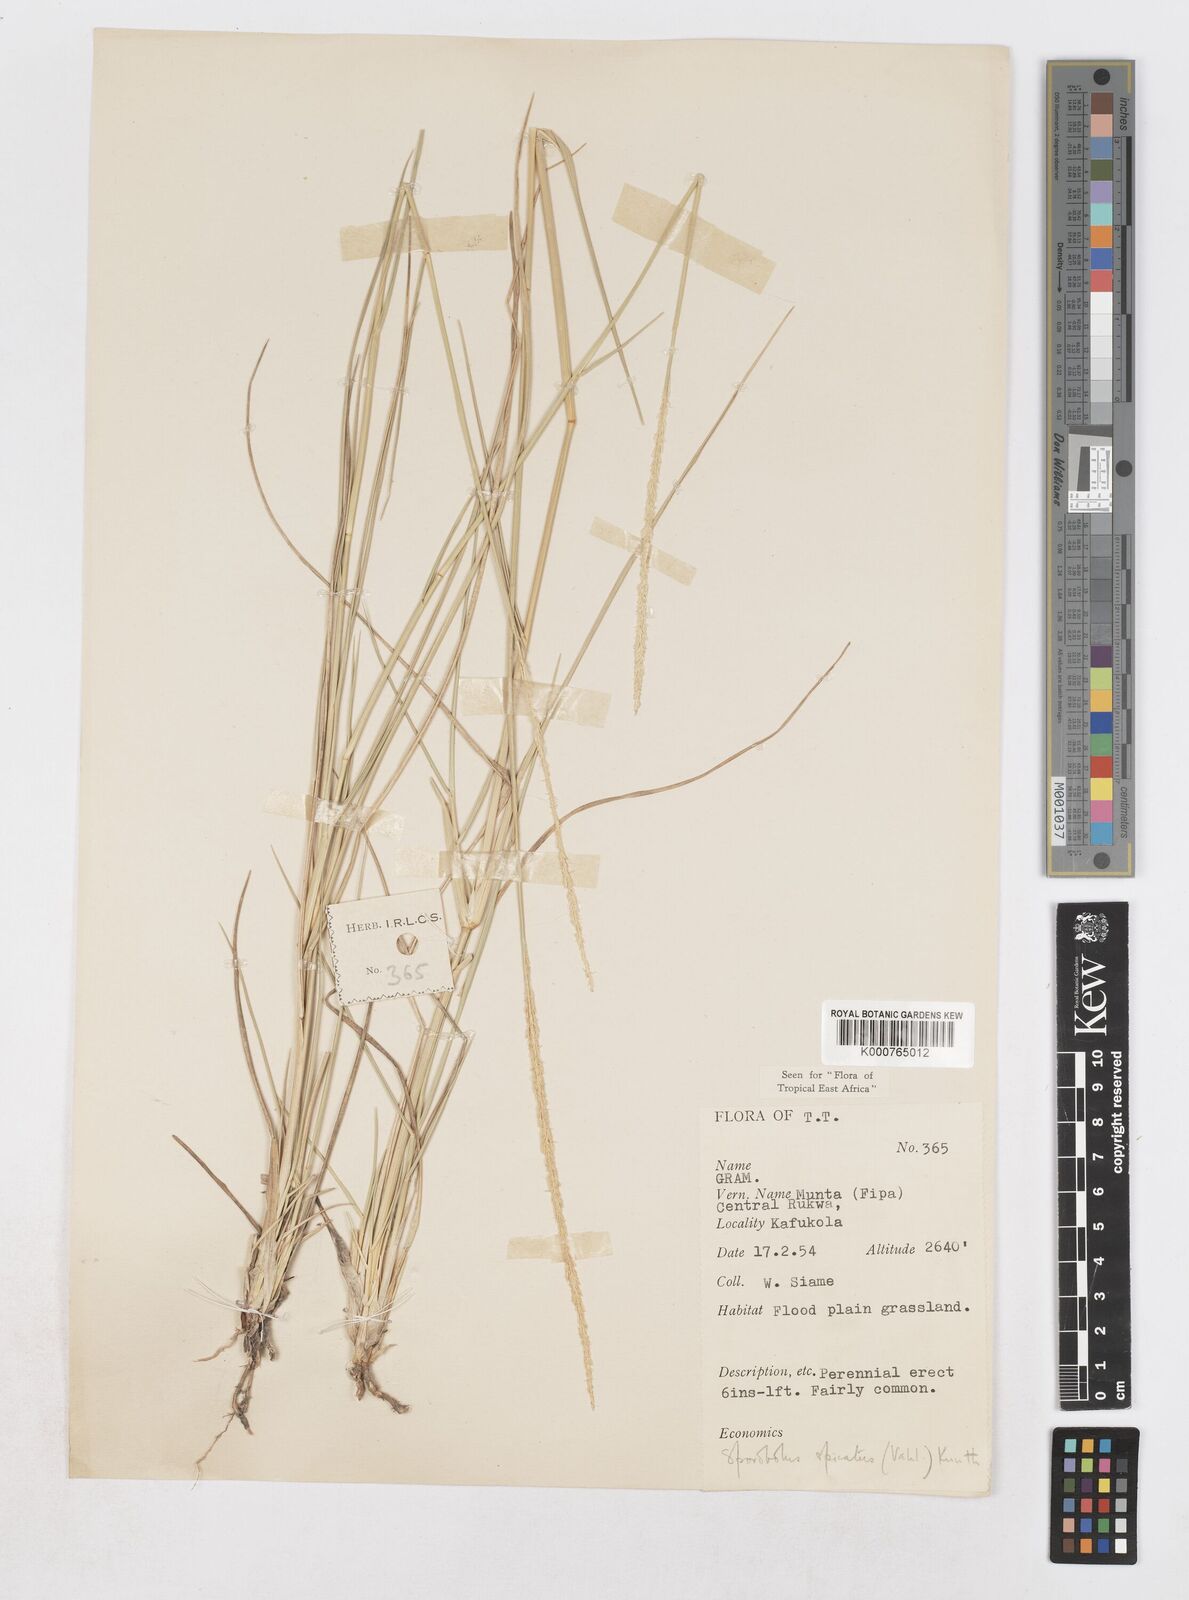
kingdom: Plantae
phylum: Tracheophyta
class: Liliopsida
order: Poales
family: Poaceae
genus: Sporobolus
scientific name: Sporobolus spicatus
